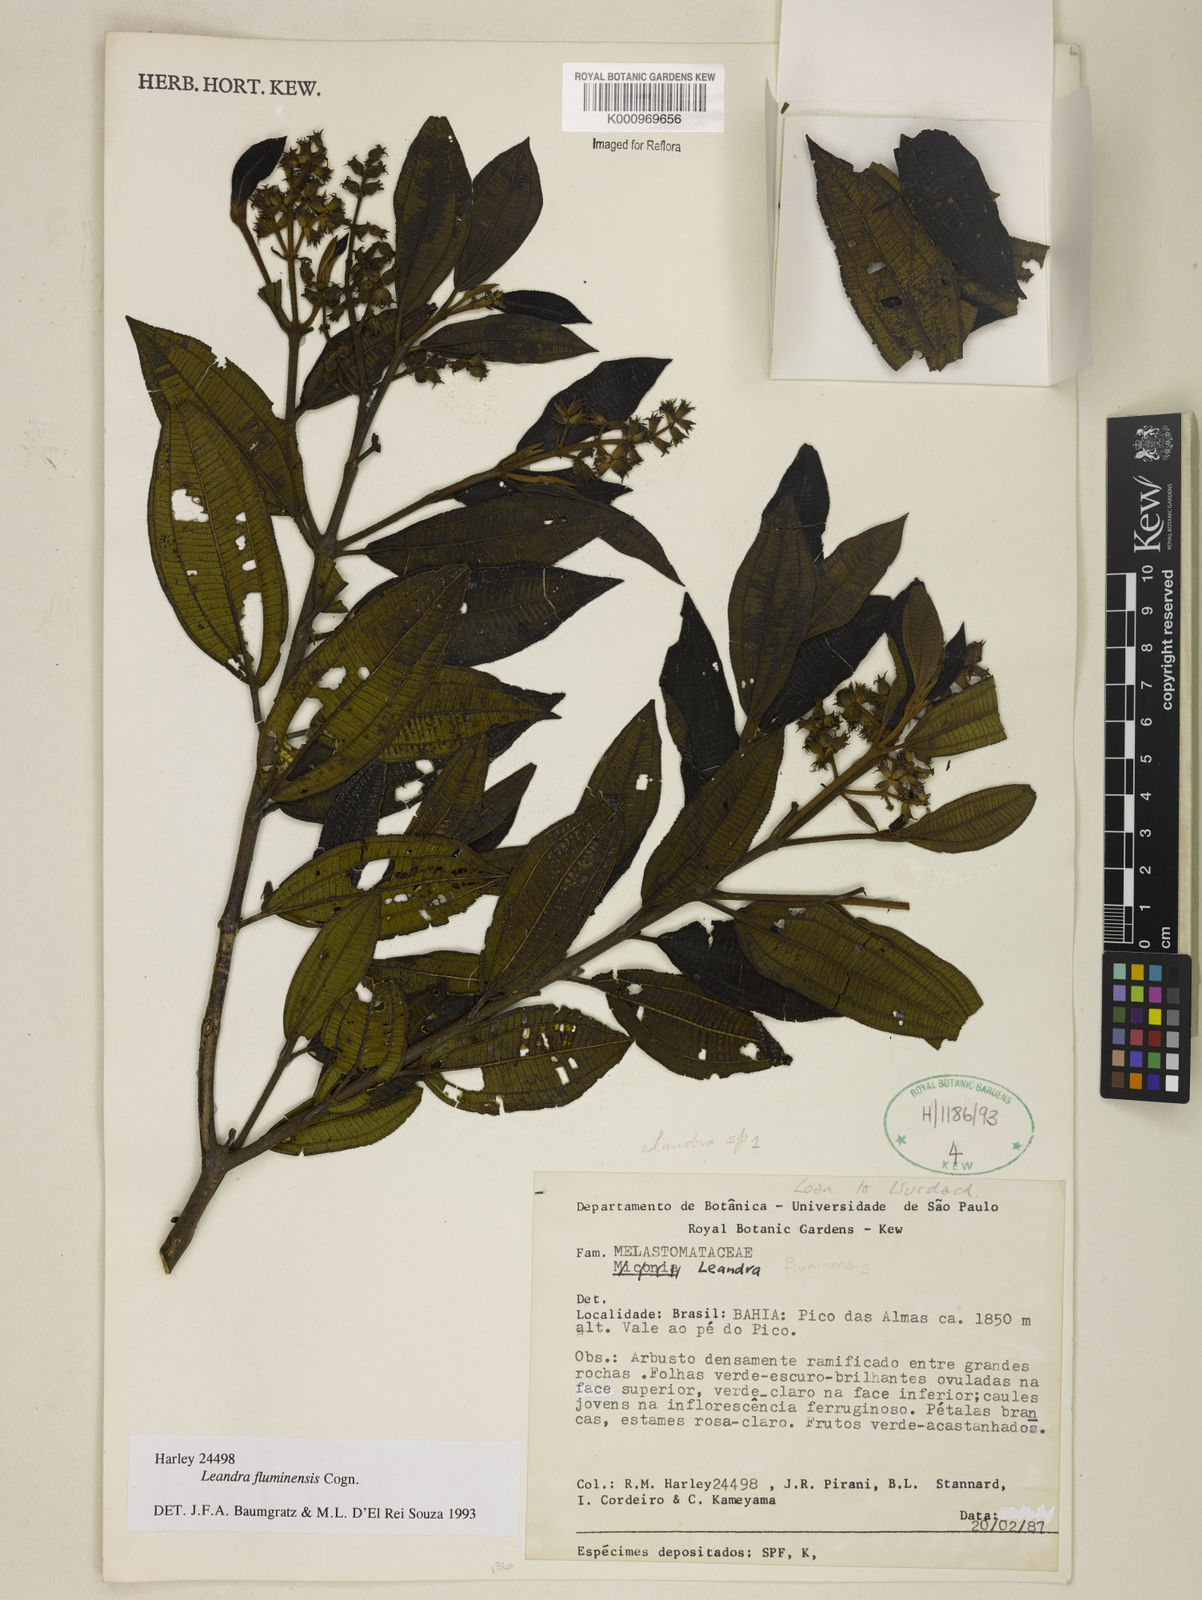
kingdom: Plantae
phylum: Tracheophyta
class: Magnoliopsida
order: Myrtales
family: Melastomataceae
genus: Miconia
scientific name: Miconia leafluminensis
